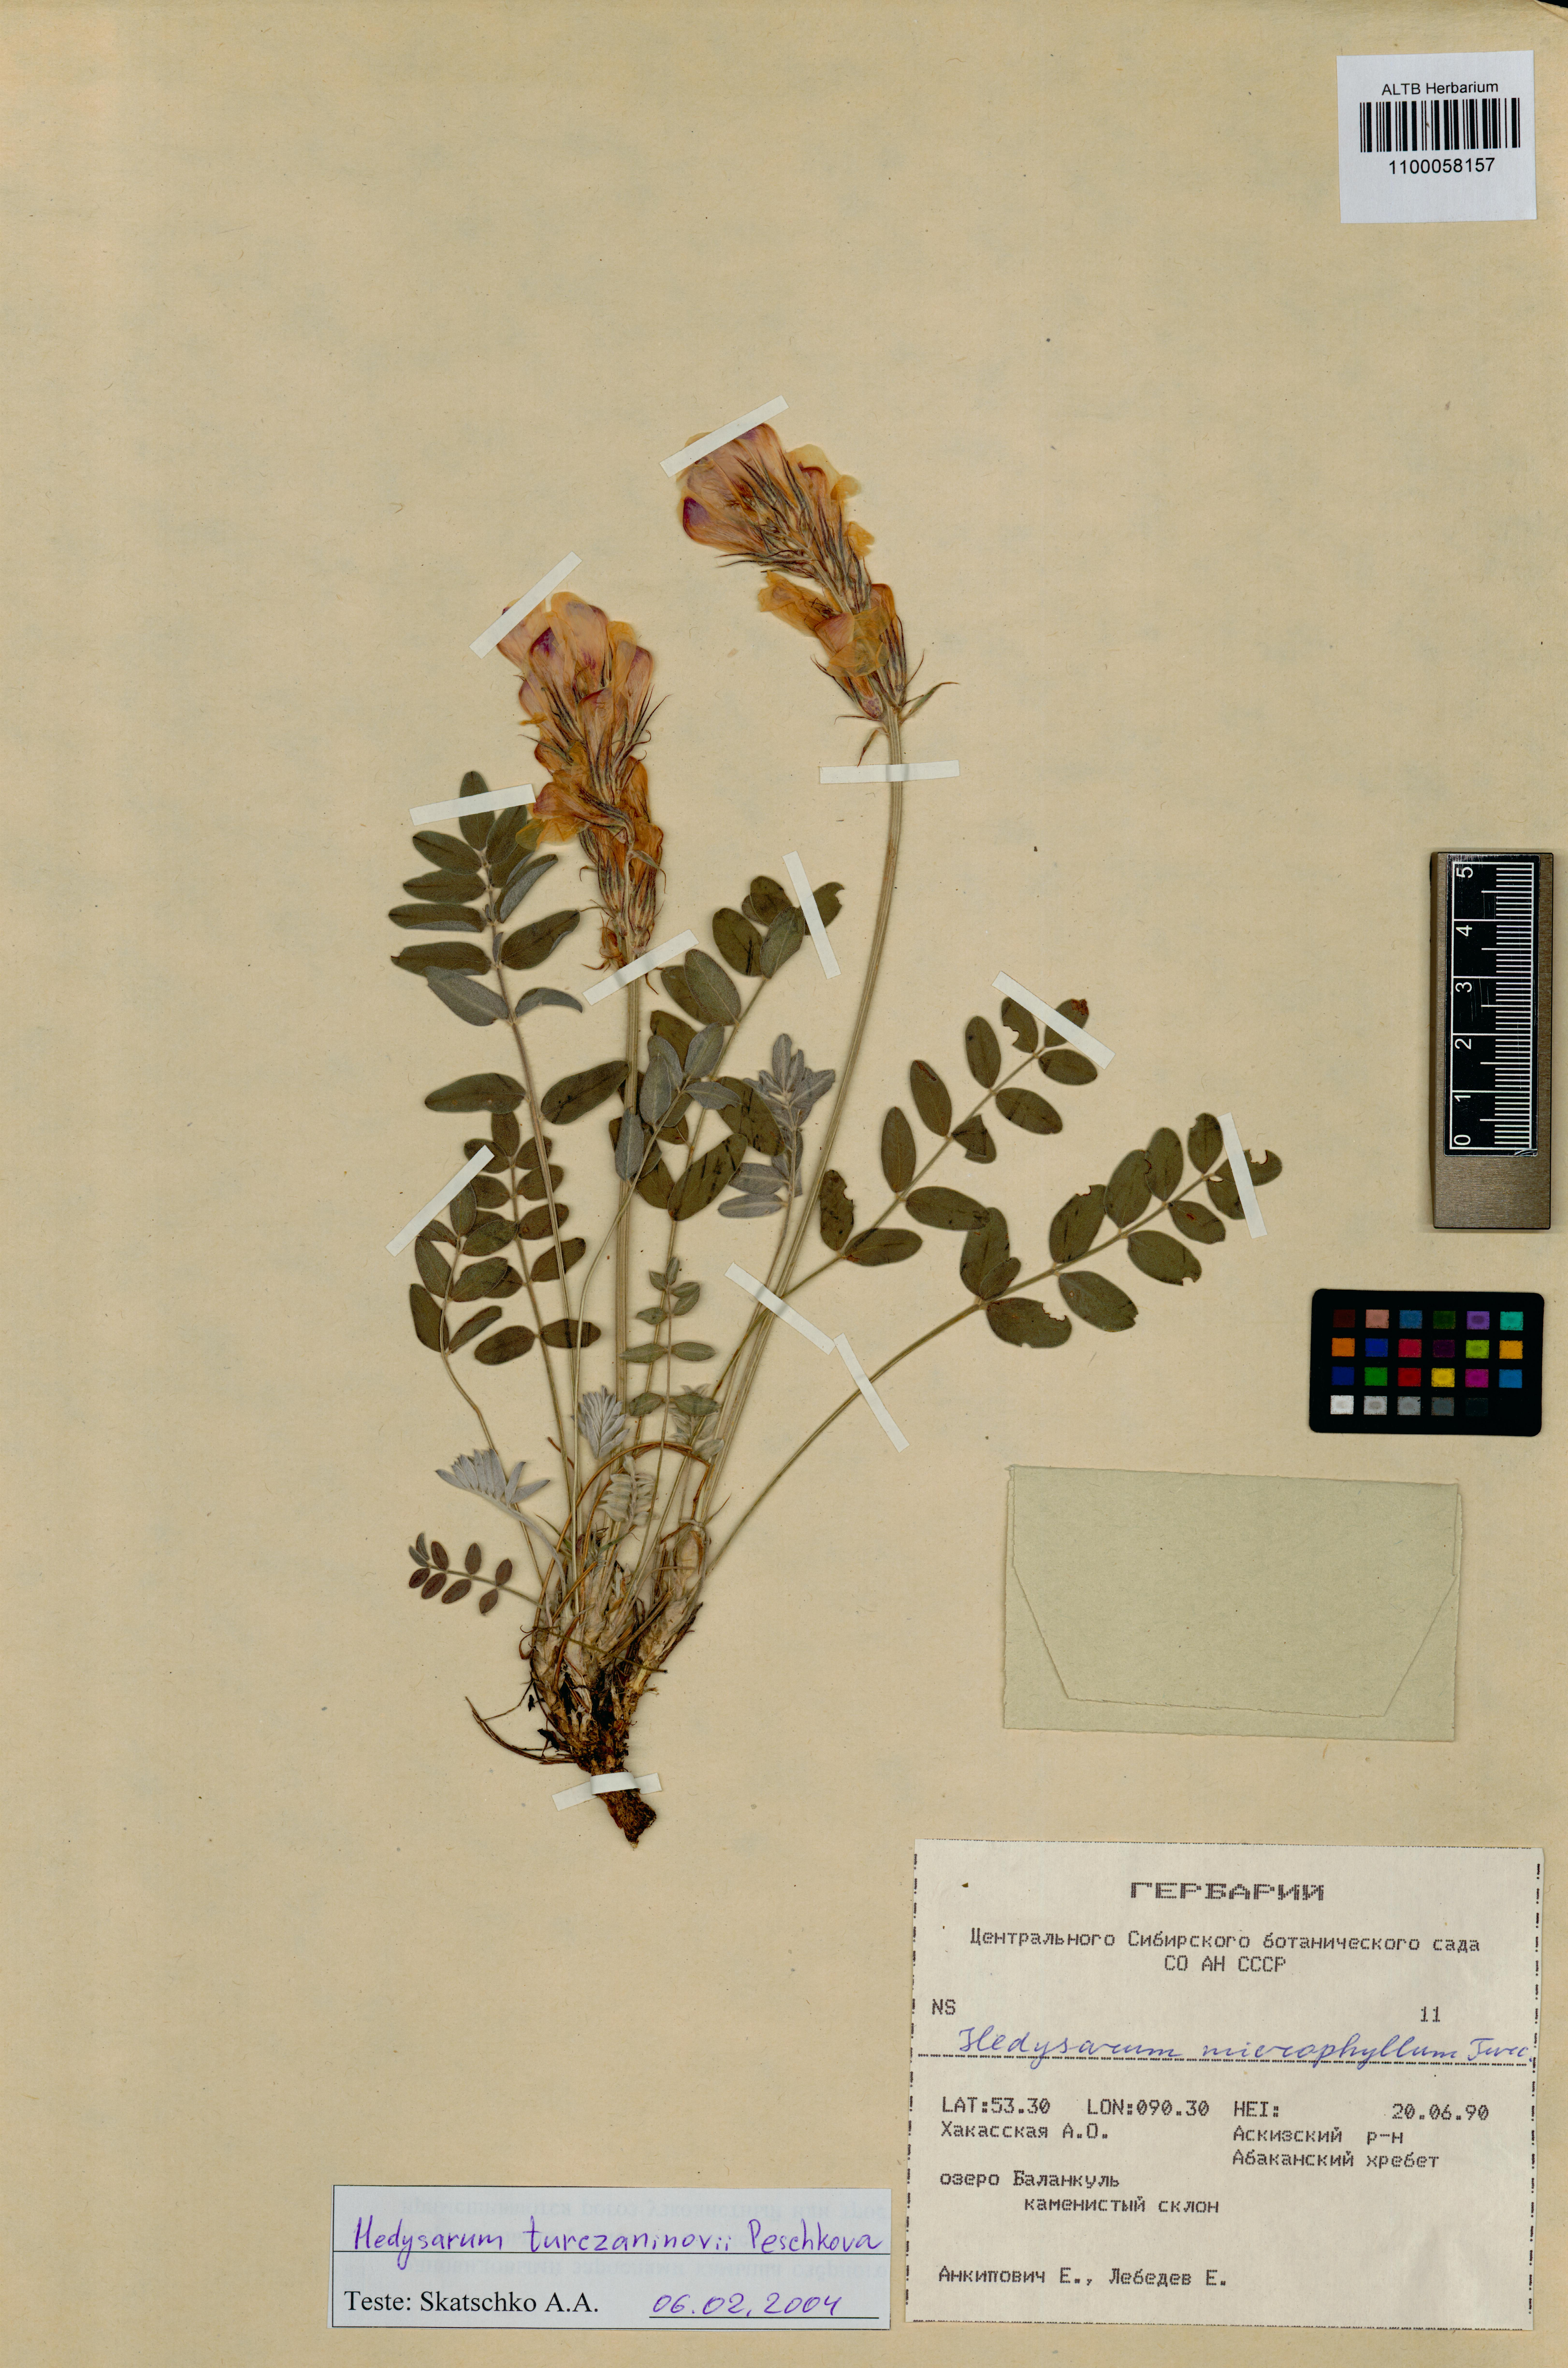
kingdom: Plantae
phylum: Tracheophyta
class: Magnoliopsida
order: Fabales
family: Fabaceae
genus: Hedysarum
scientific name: Hedysarum turczaninovii
